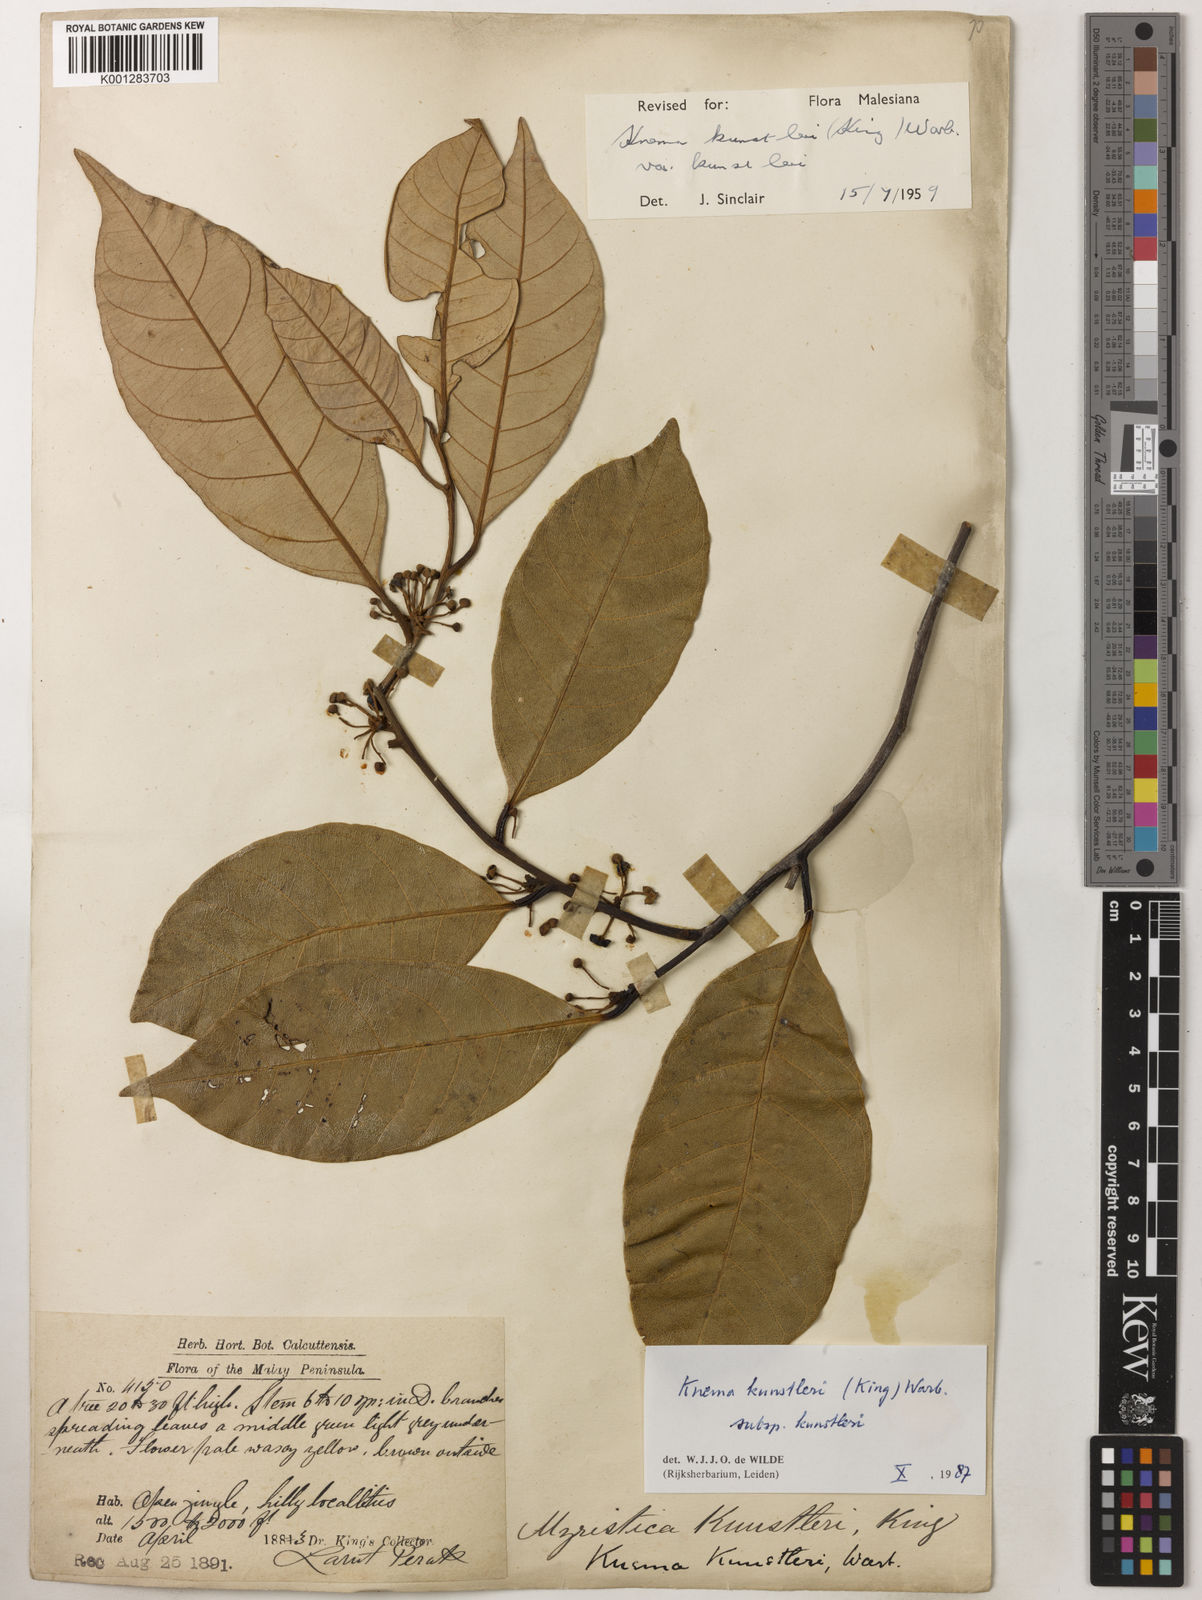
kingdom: Plantae
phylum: Tracheophyta
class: Magnoliopsida
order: Magnoliales
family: Myristicaceae
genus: Knema
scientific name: Knema kunstleri
